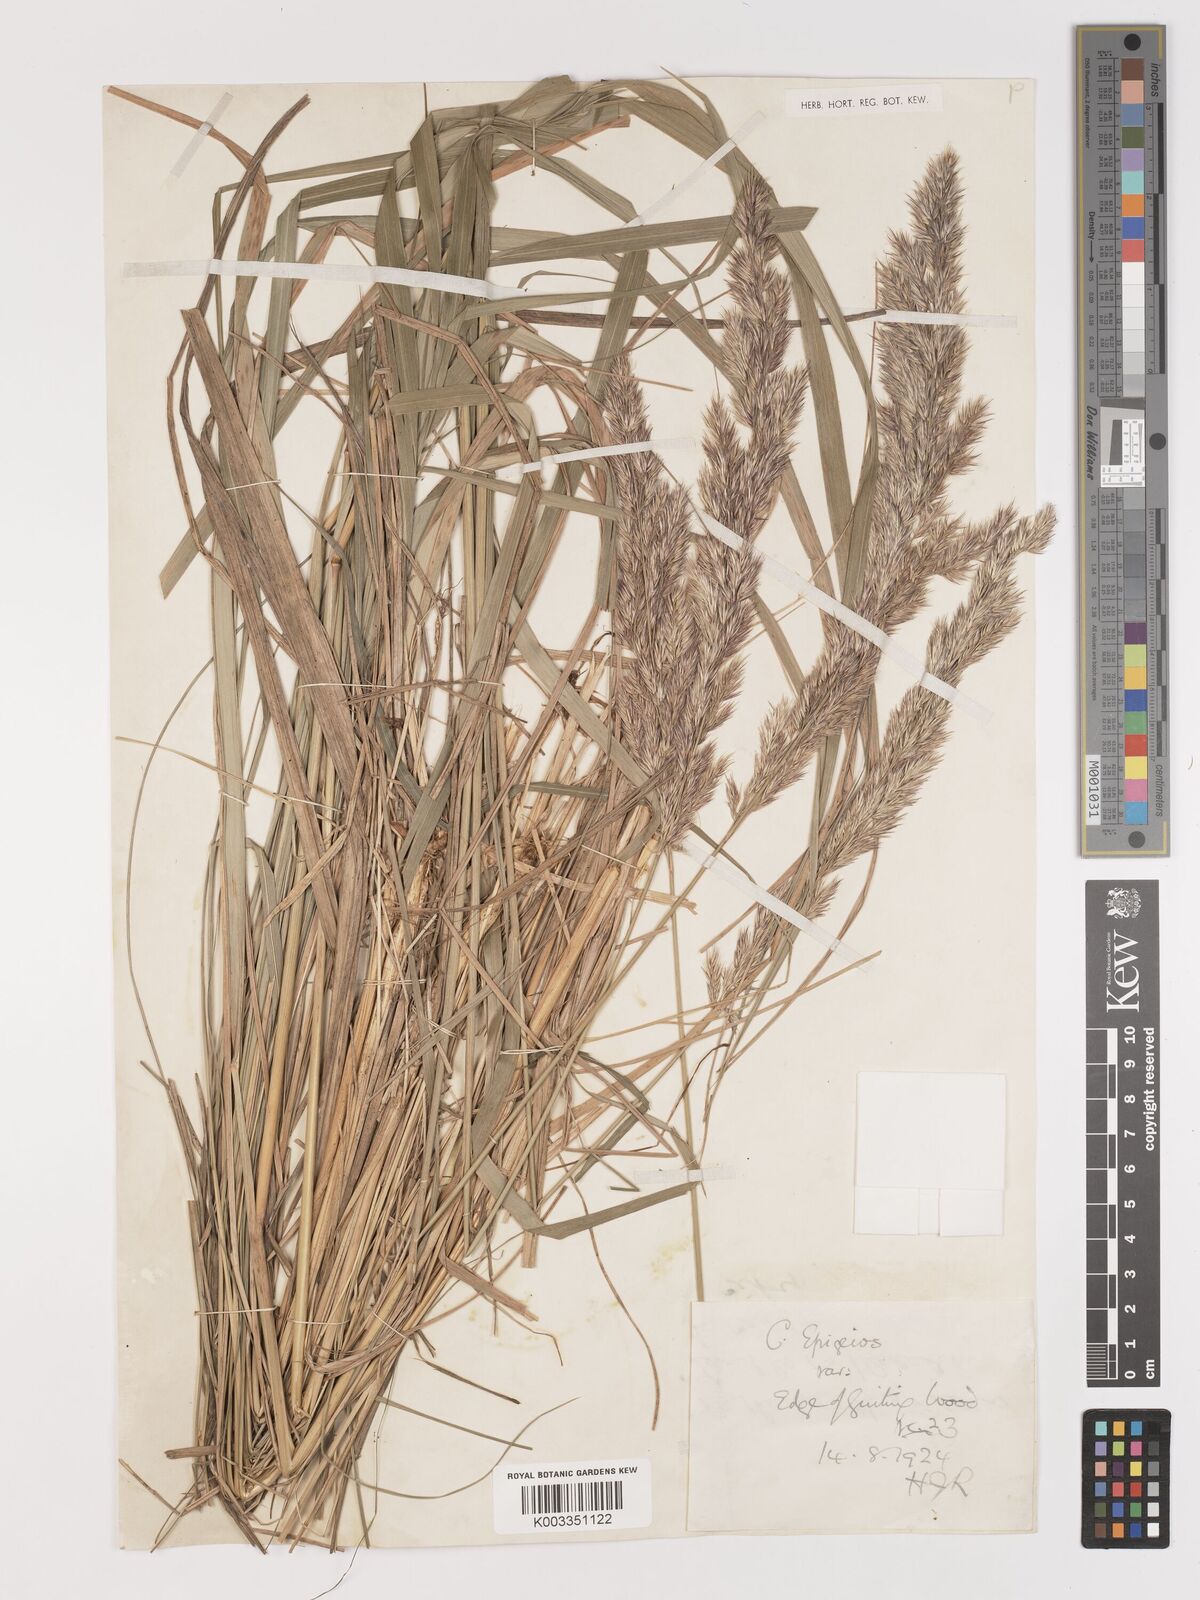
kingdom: Plantae
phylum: Tracheophyta
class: Liliopsida
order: Poales
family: Poaceae
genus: Calamagrostis
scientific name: Calamagrostis
